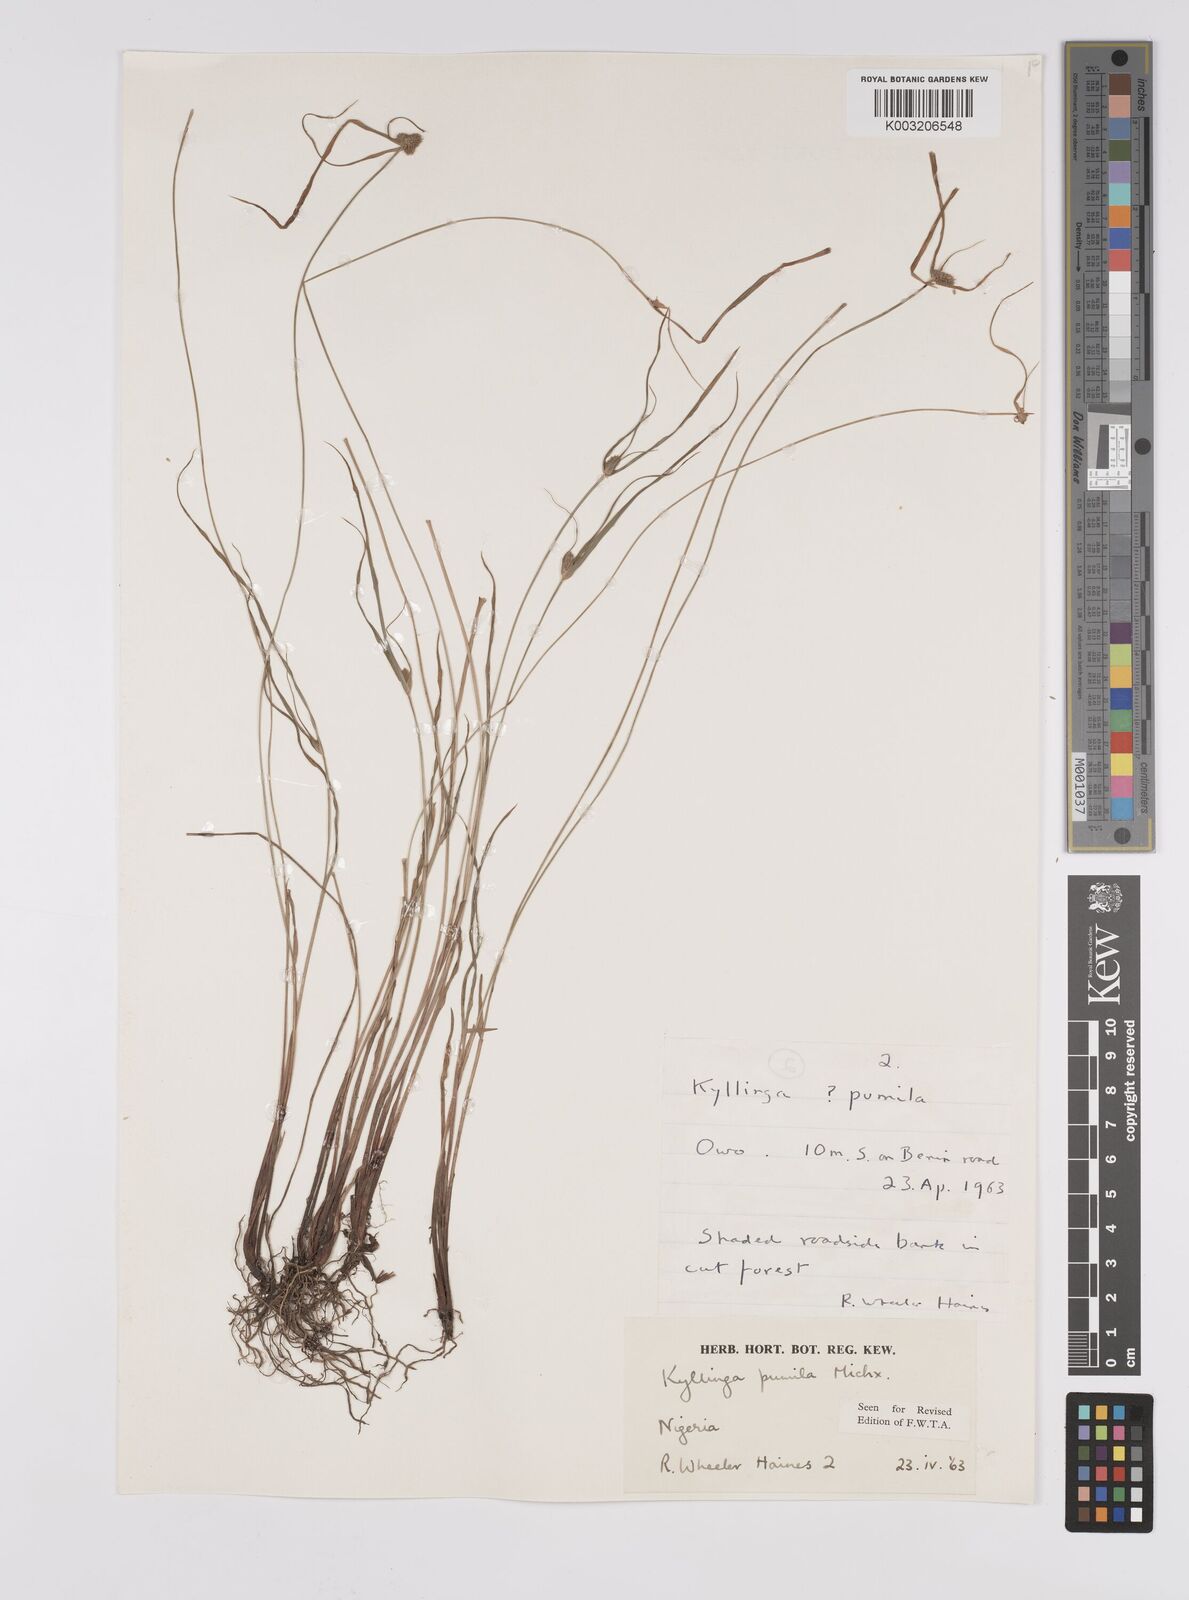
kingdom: Plantae
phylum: Tracheophyta
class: Liliopsida
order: Poales
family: Cyperaceae
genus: Cyperus
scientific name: Cyperus
